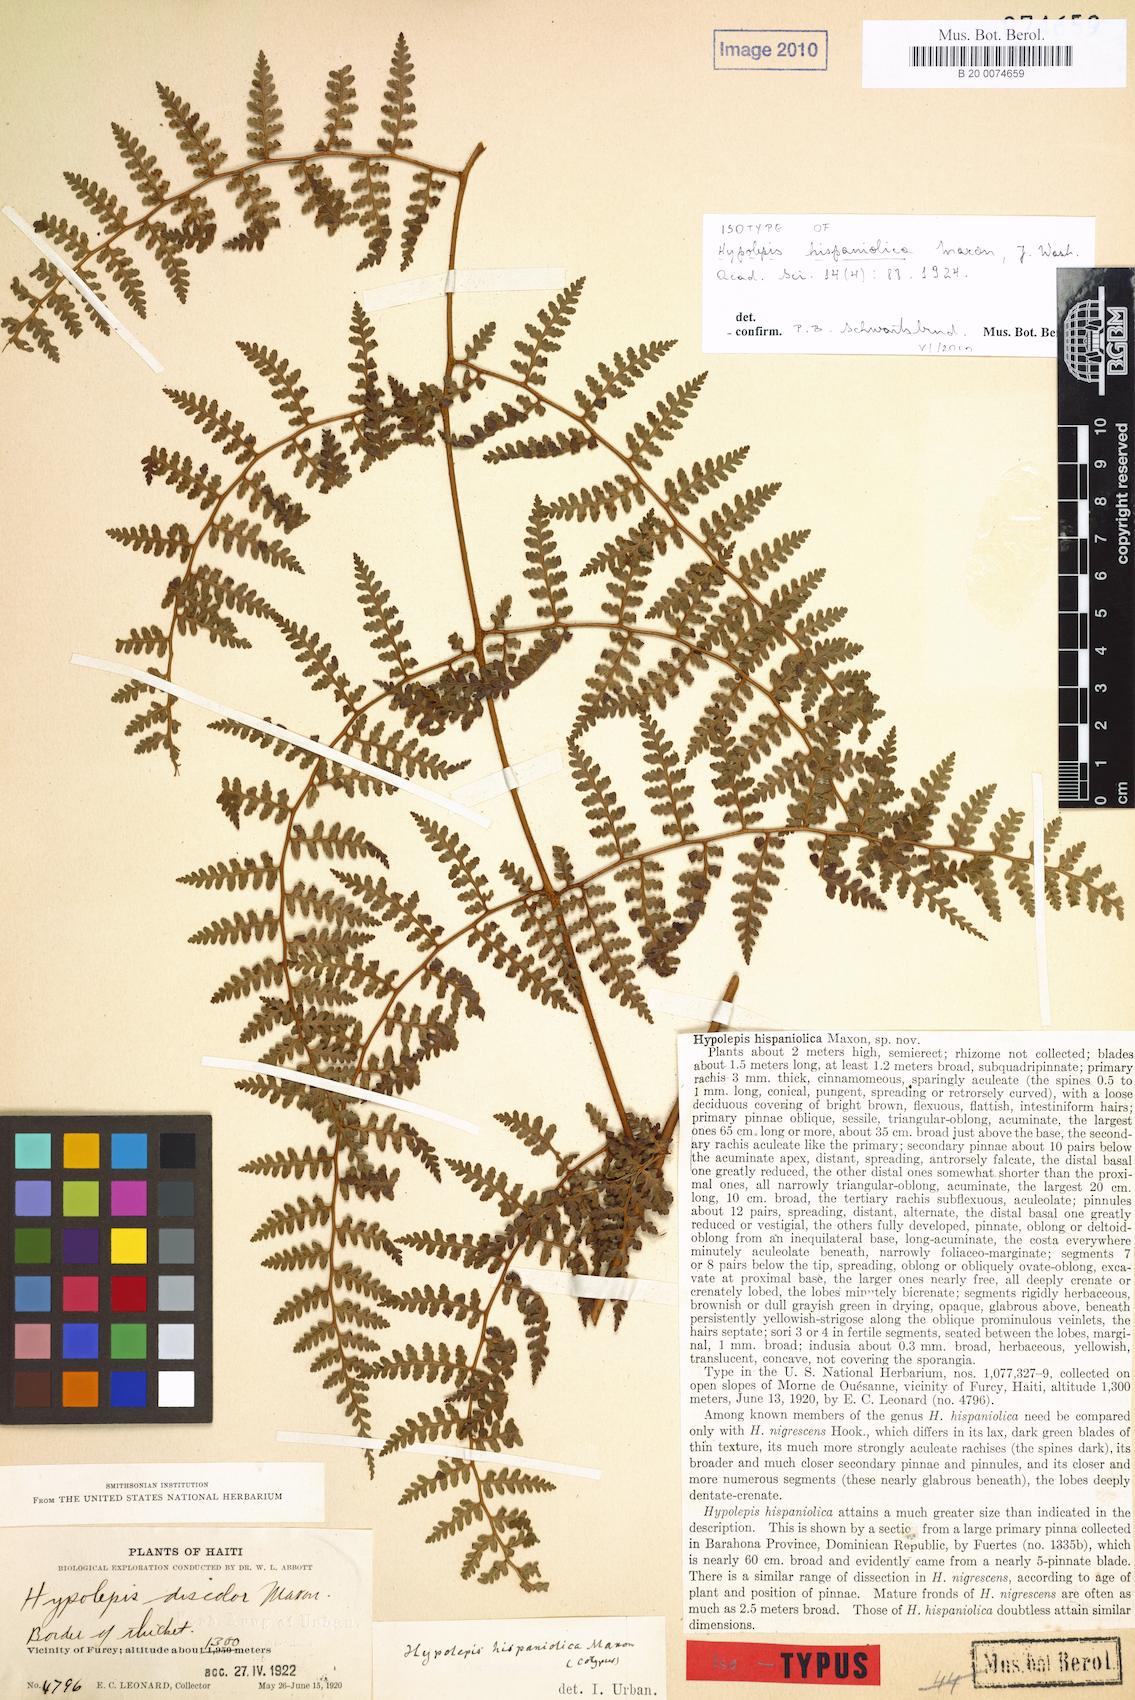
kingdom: Plantae
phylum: Tracheophyta
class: Polypodiopsida
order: Polypodiales
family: Dennstaedtiaceae
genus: Hiya
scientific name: Hiya nigrescens
